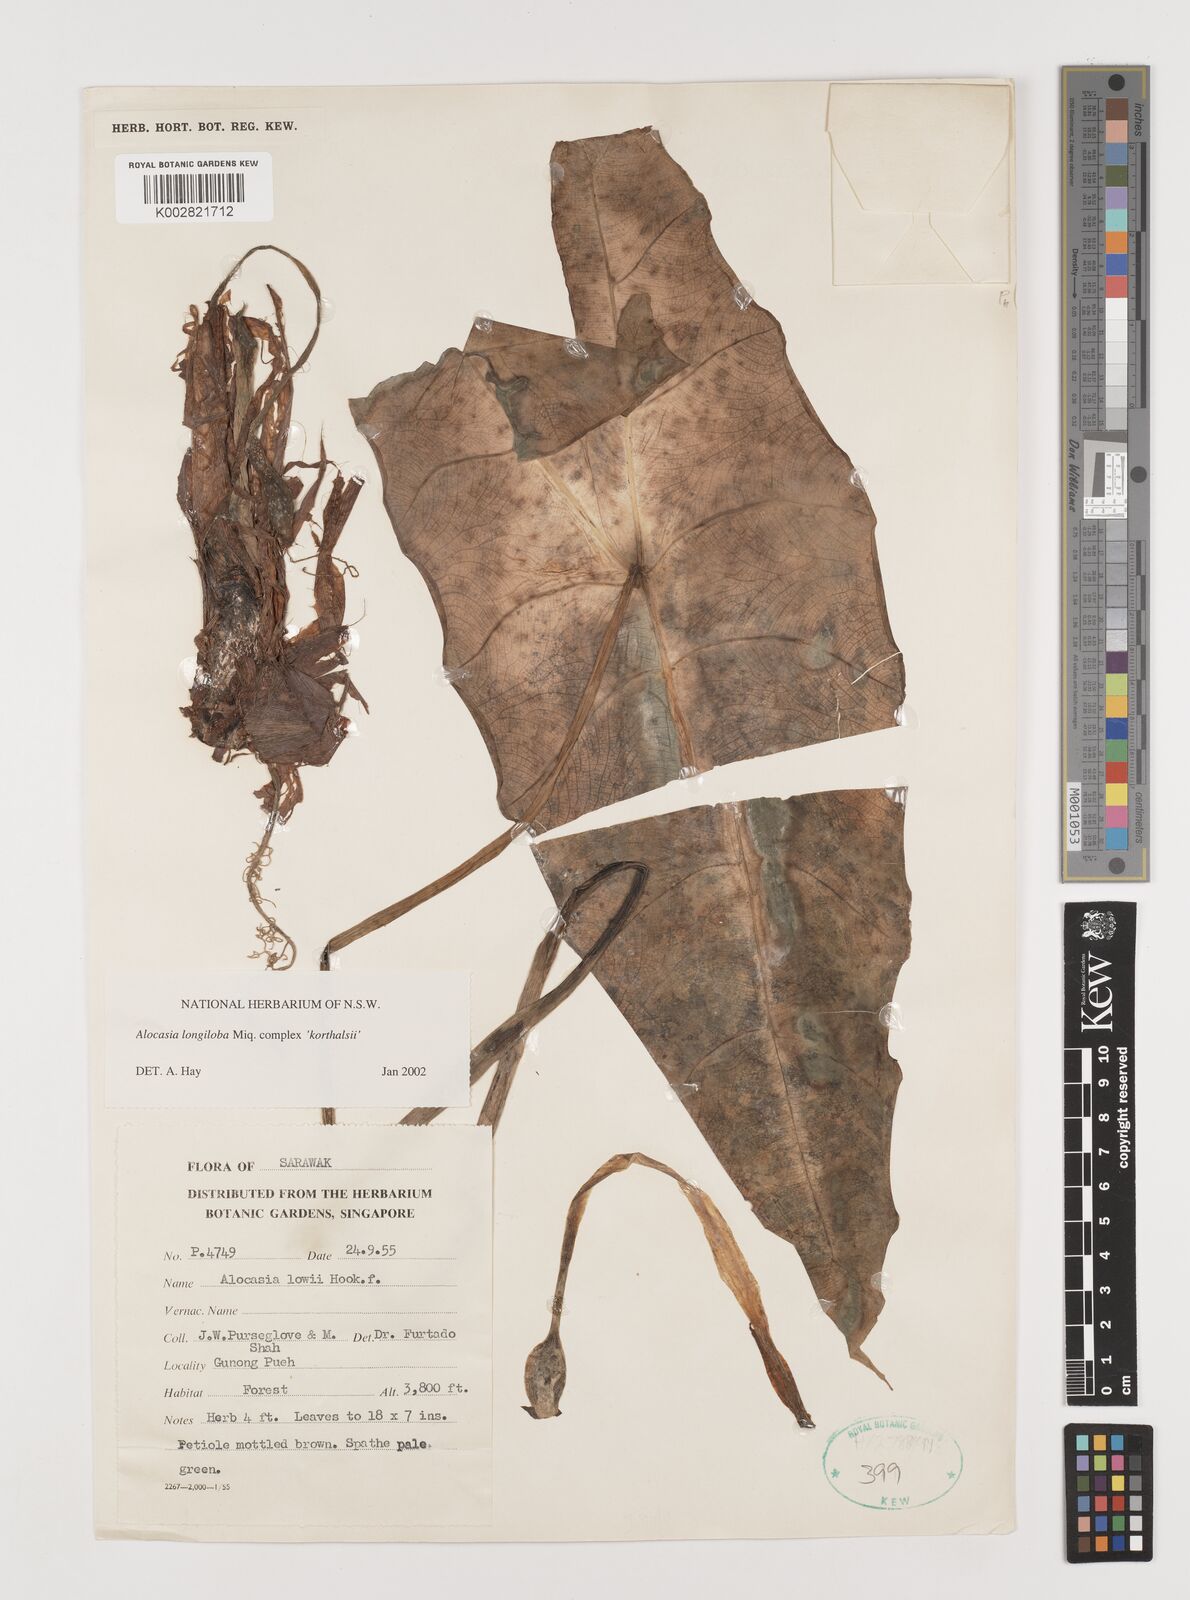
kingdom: Plantae
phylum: Tracheophyta
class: Liliopsida
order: Alismatales
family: Araceae
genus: Alocasia
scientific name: Alocasia longiloba
